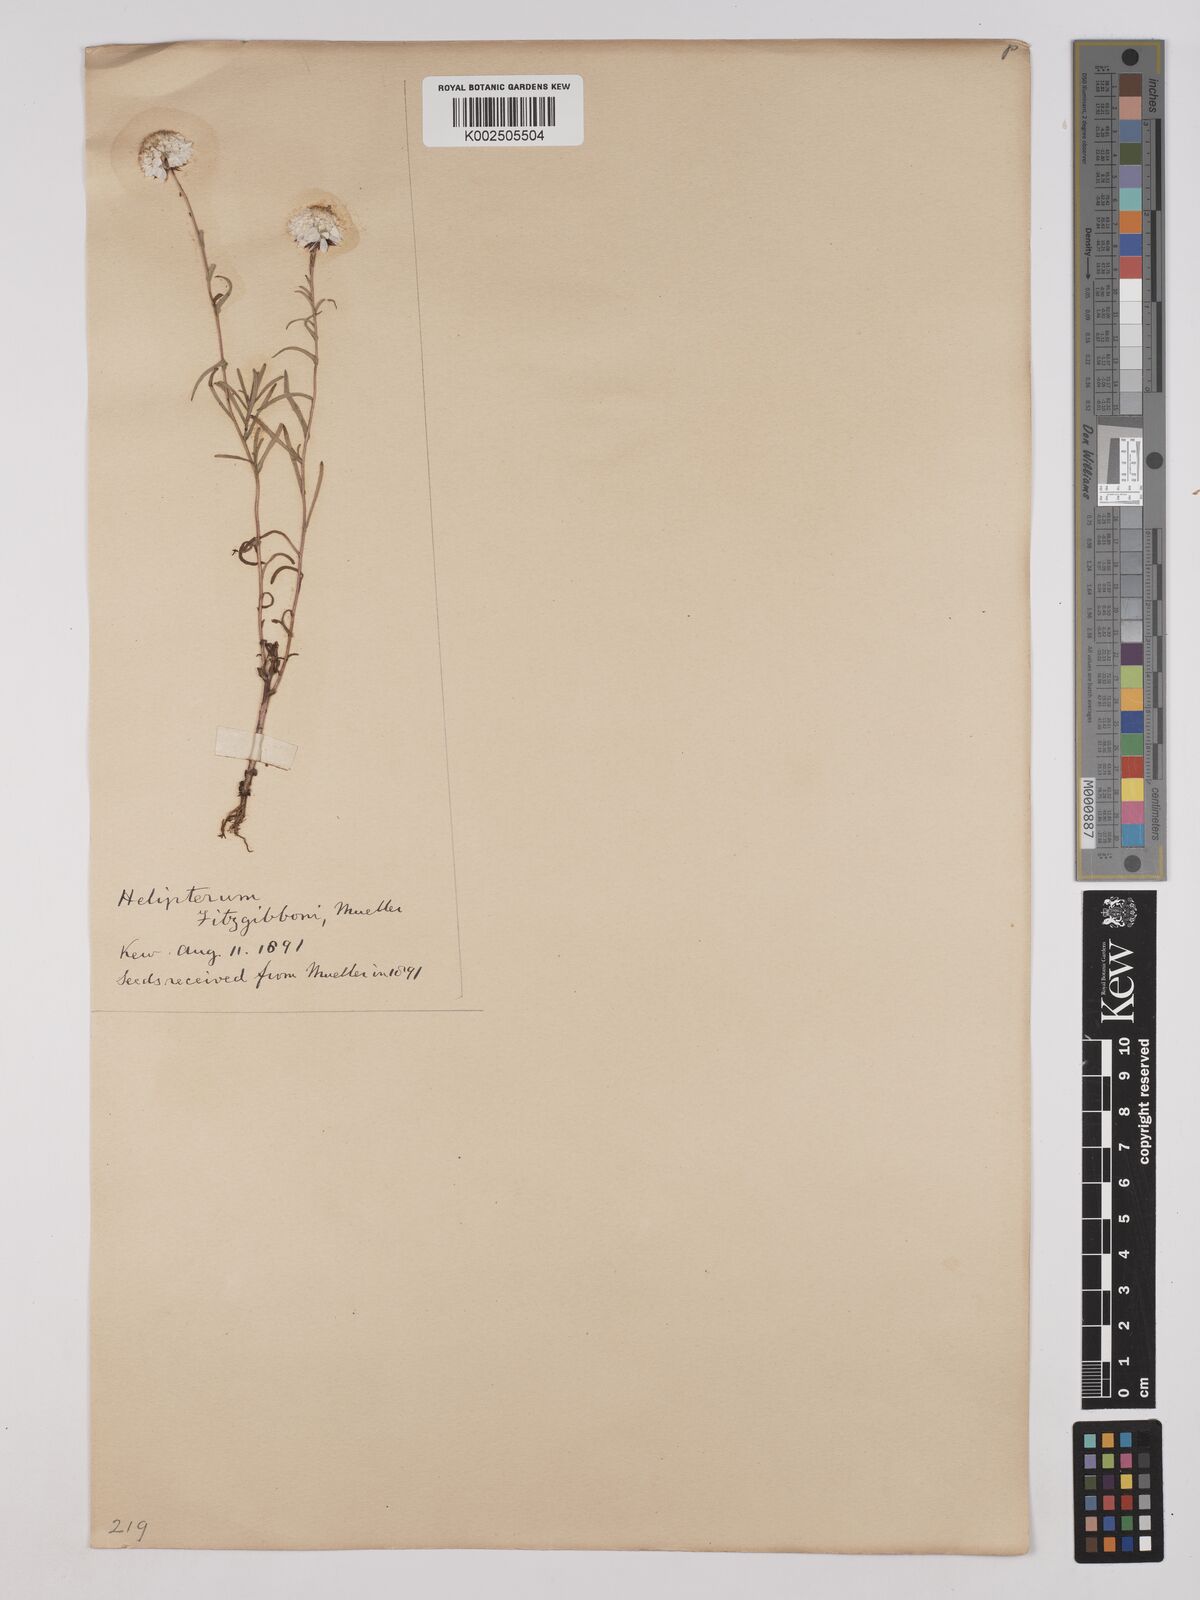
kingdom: Plantae
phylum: Tracheophyta
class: Magnoliopsida
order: Asterales
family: Asteraceae
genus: Waitzia
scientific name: Waitzia fitzgibbonii
